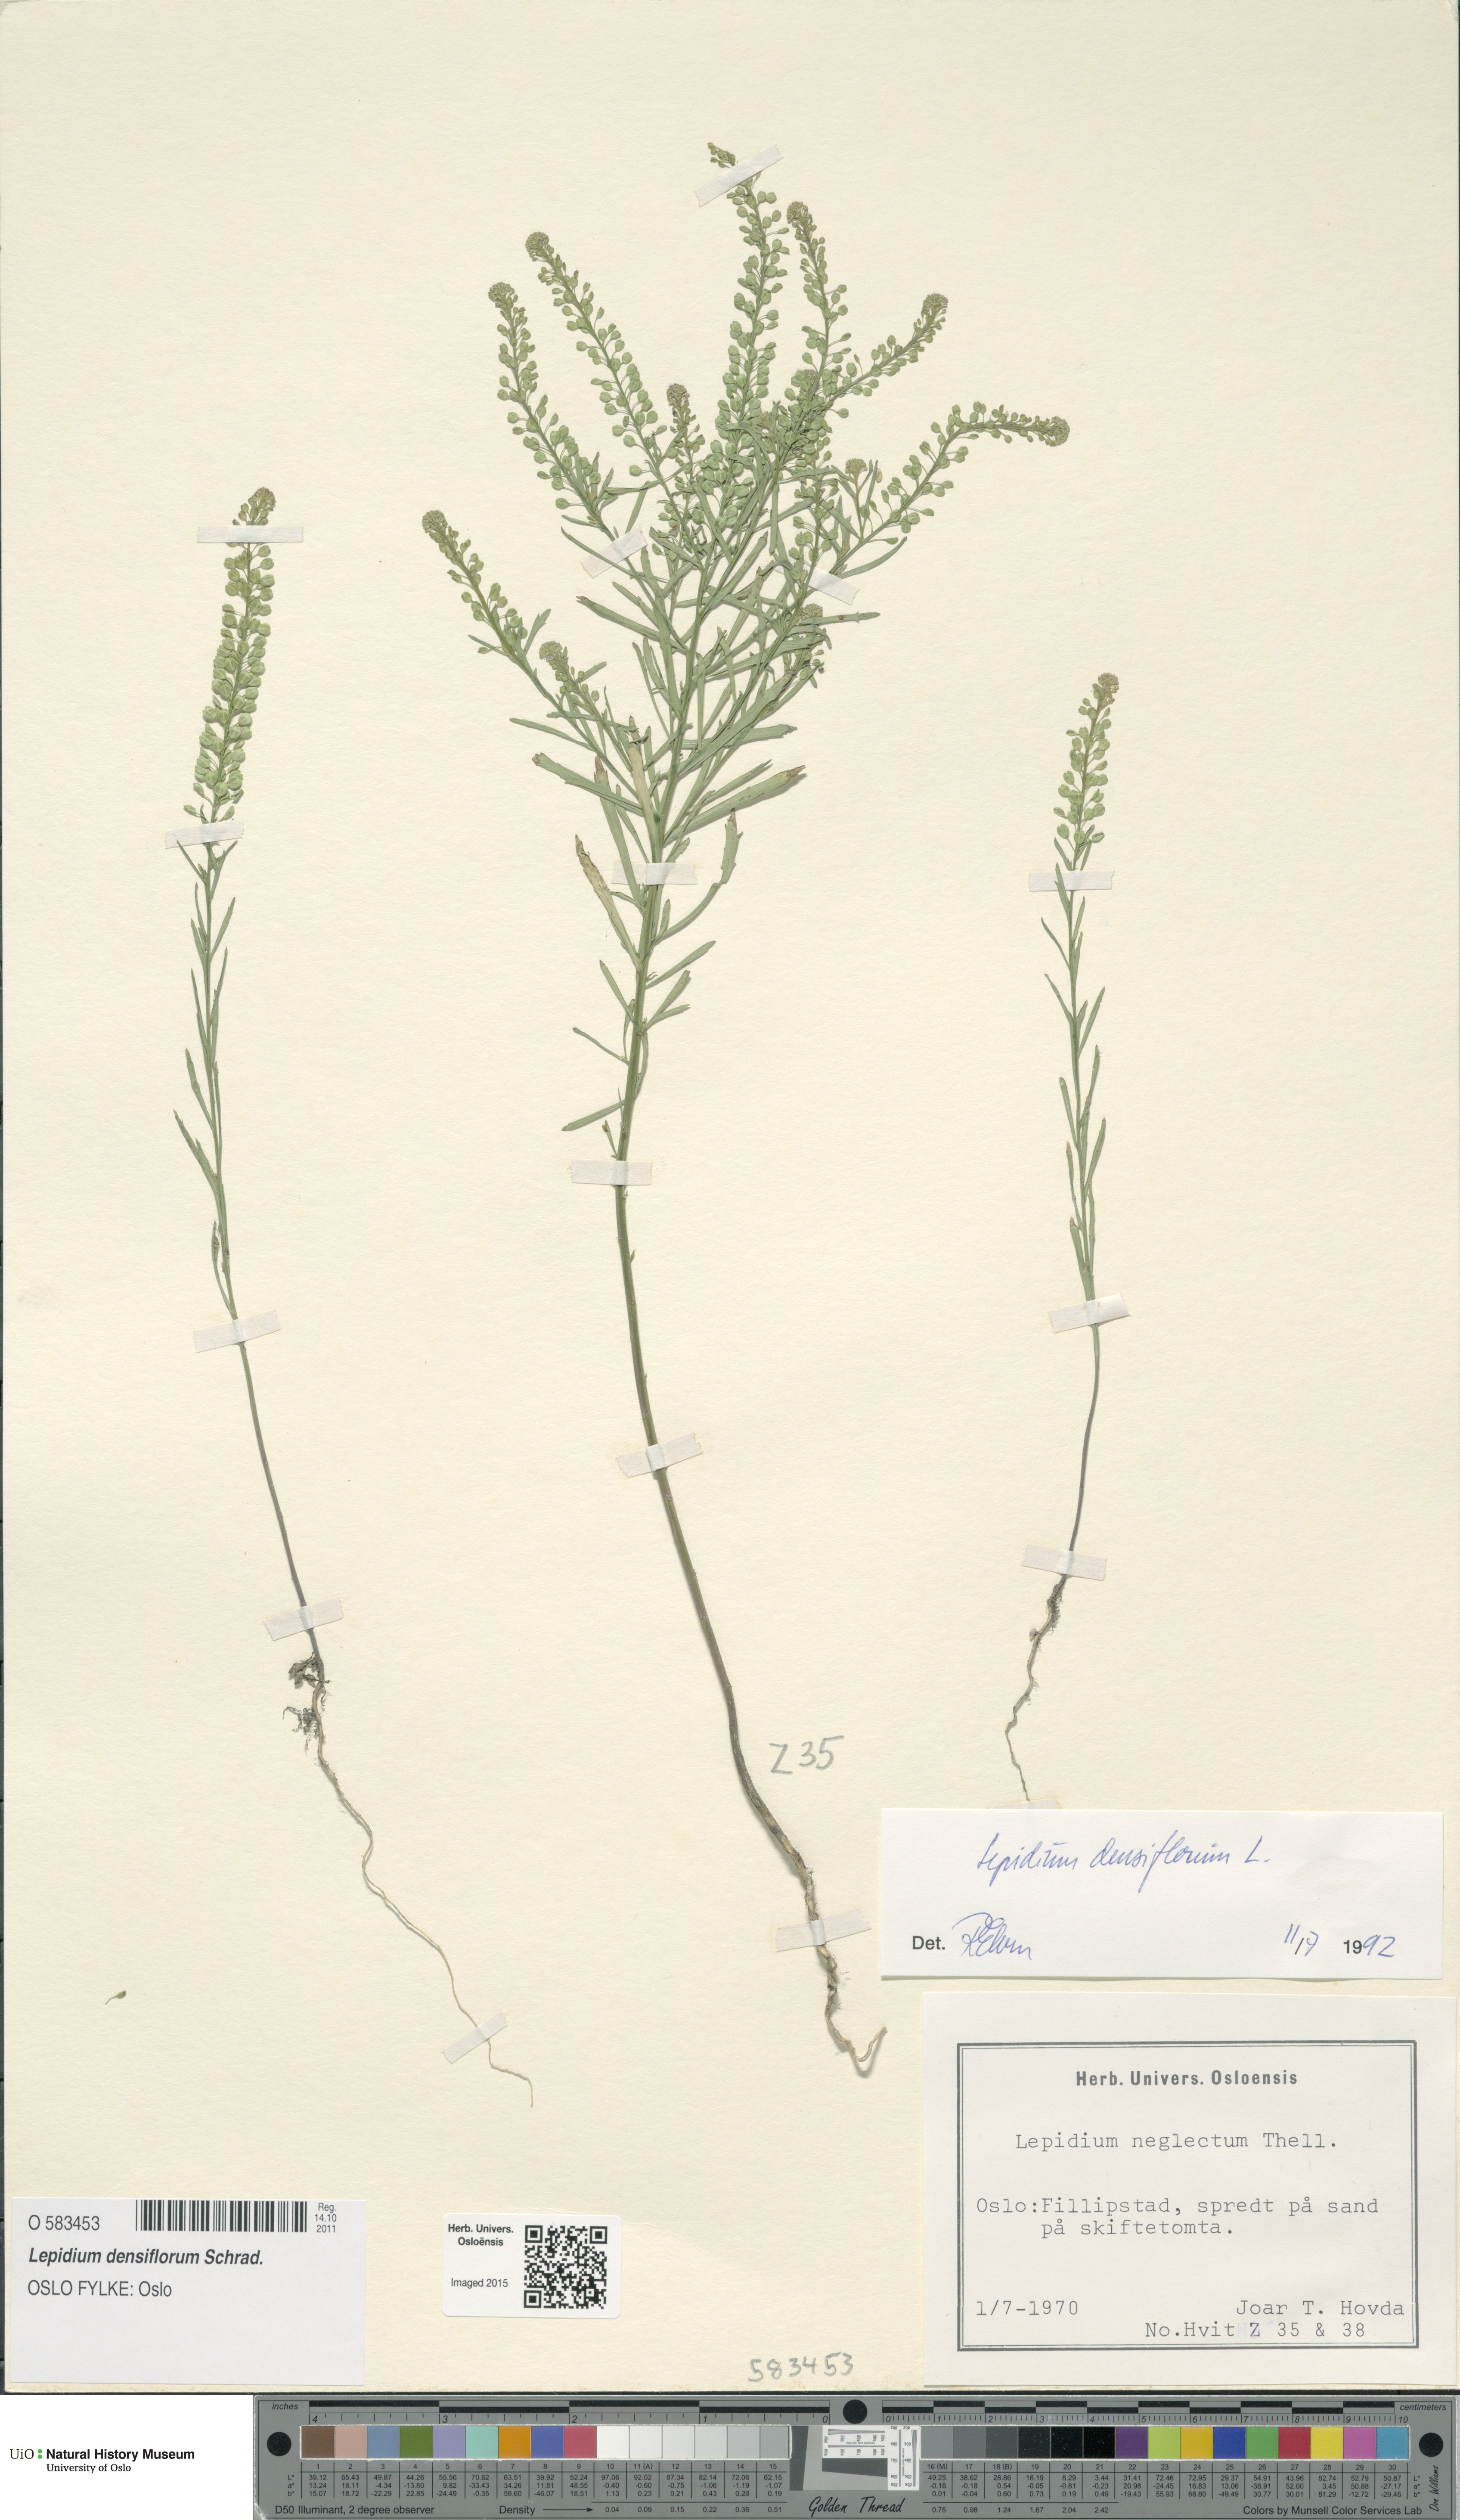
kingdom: Plantae
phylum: Tracheophyta
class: Magnoliopsida
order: Brassicales
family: Brassicaceae
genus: Lepidium
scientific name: Lepidium densiflorum
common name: Miner's pepperwort
